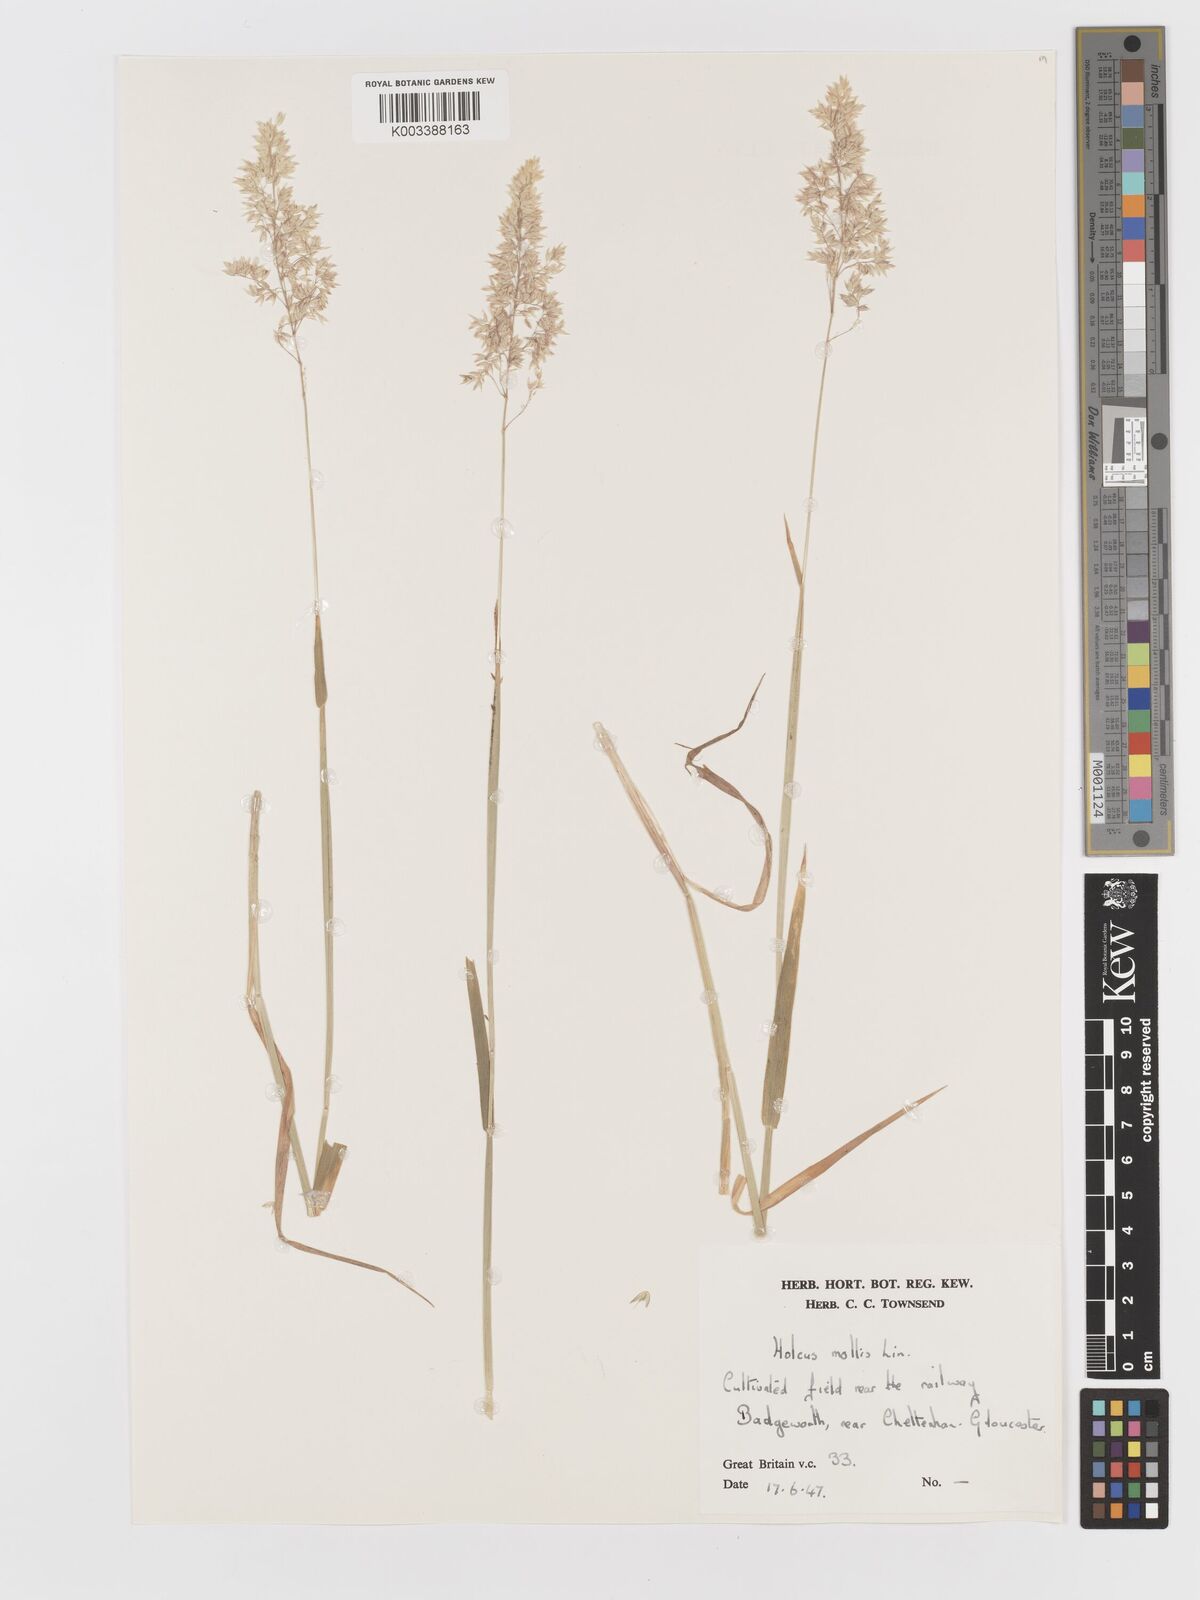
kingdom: Plantae
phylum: Tracheophyta
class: Liliopsida
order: Poales
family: Poaceae
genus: Holcus
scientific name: Holcus mollis
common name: Creeping velvetgrass
